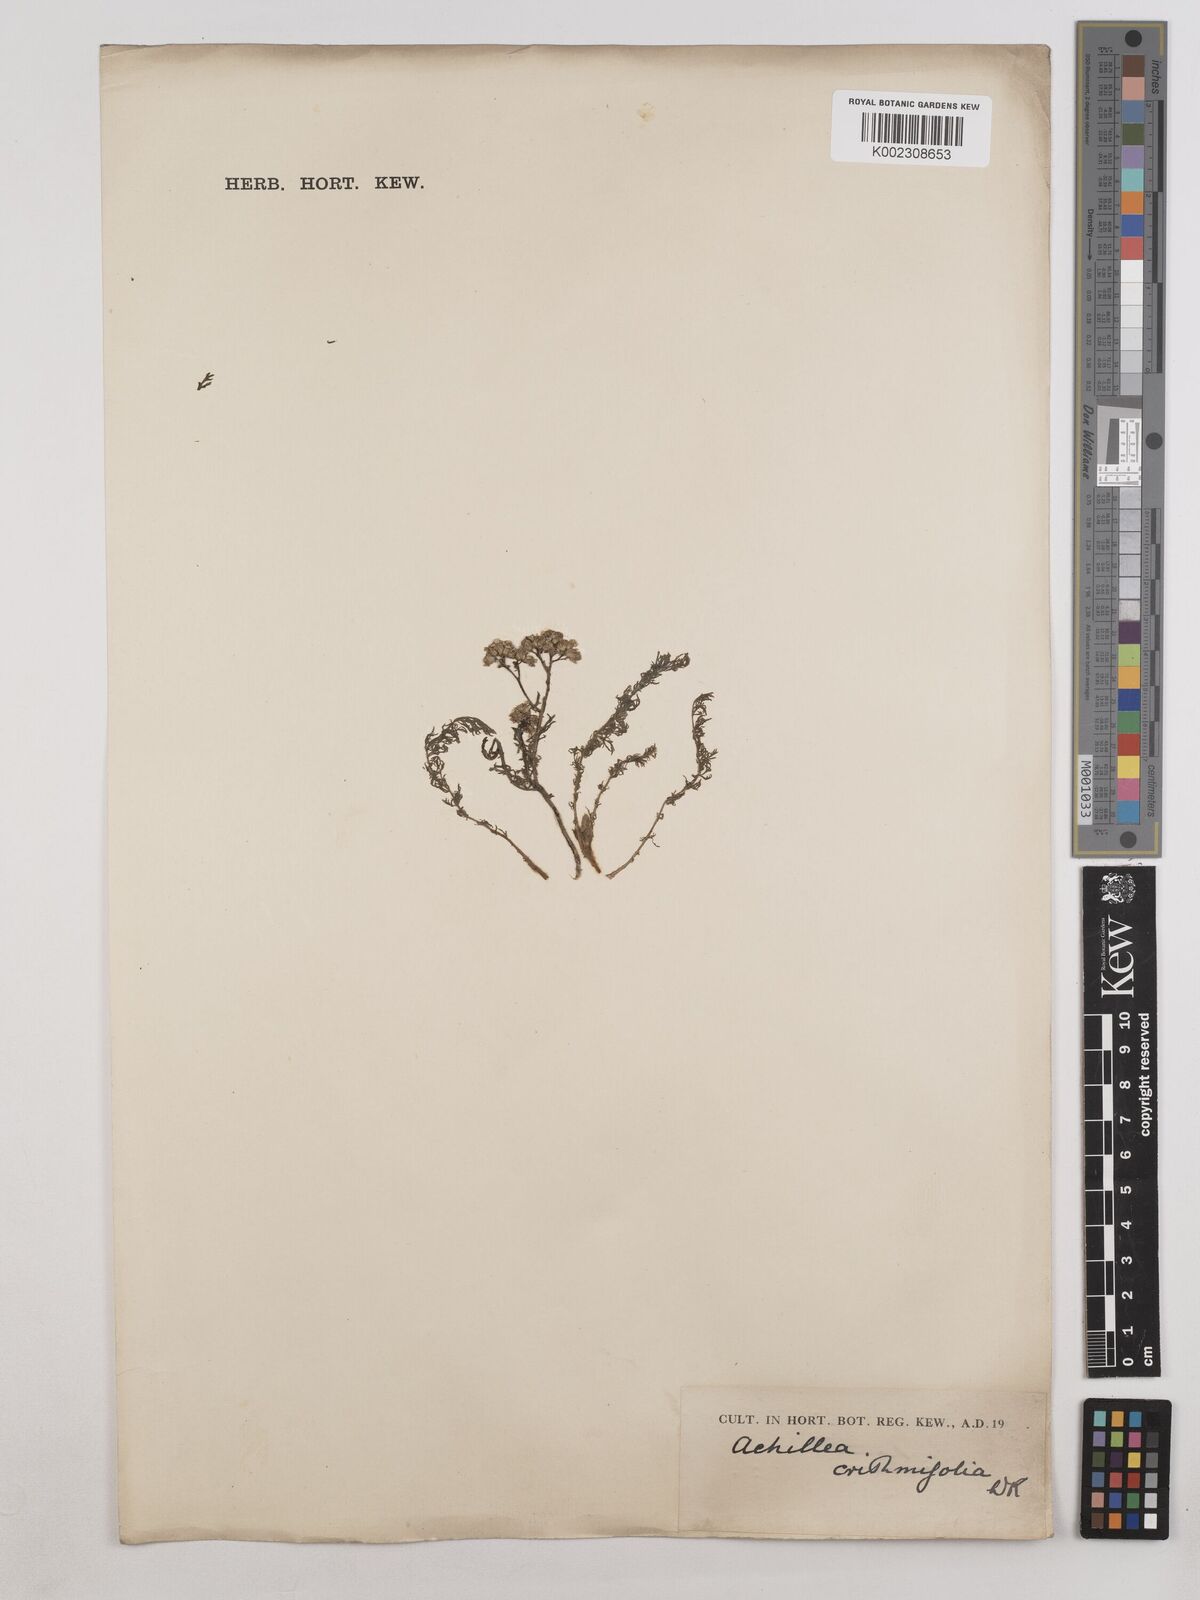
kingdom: Plantae
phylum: Tracheophyta
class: Magnoliopsida
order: Asterales
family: Asteraceae
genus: Achillea
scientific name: Achillea crithmifolia
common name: Yarrow
